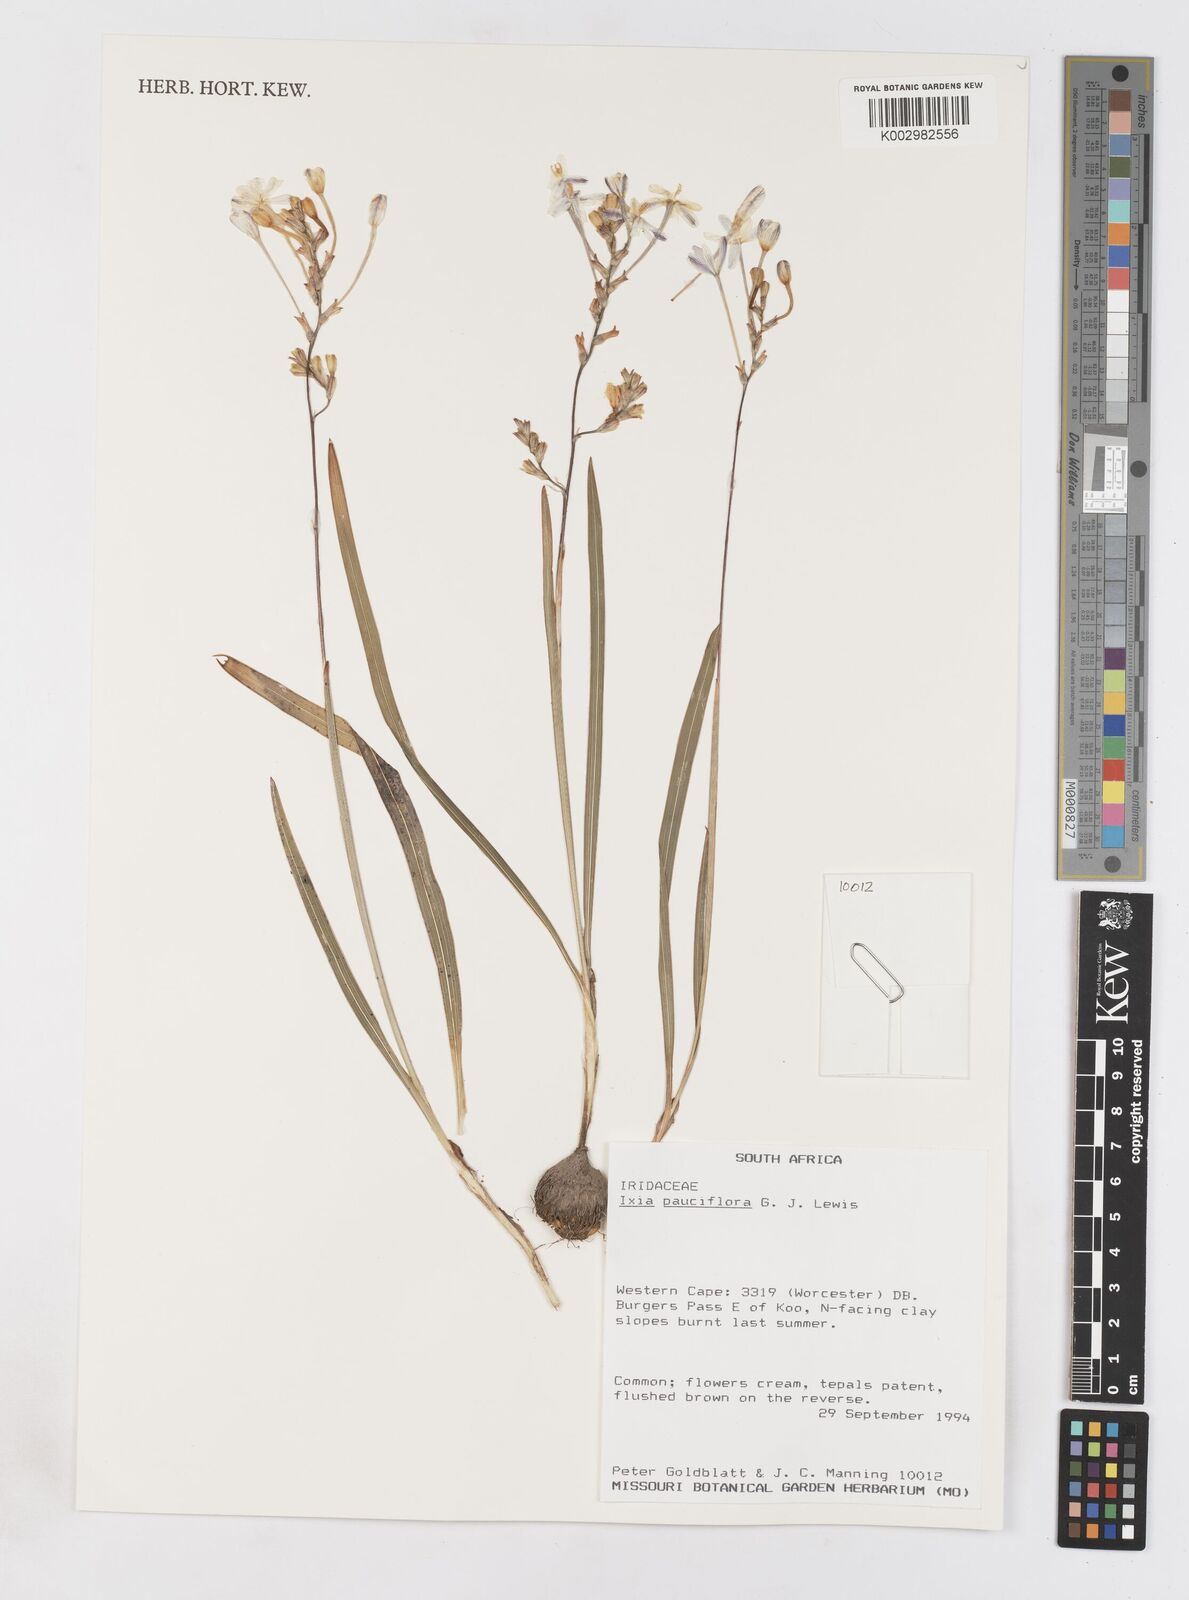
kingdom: Plantae
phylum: Tracheophyta
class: Liliopsida
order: Asparagales
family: Iridaceae
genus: Ixia
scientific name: Ixia pauciflora
